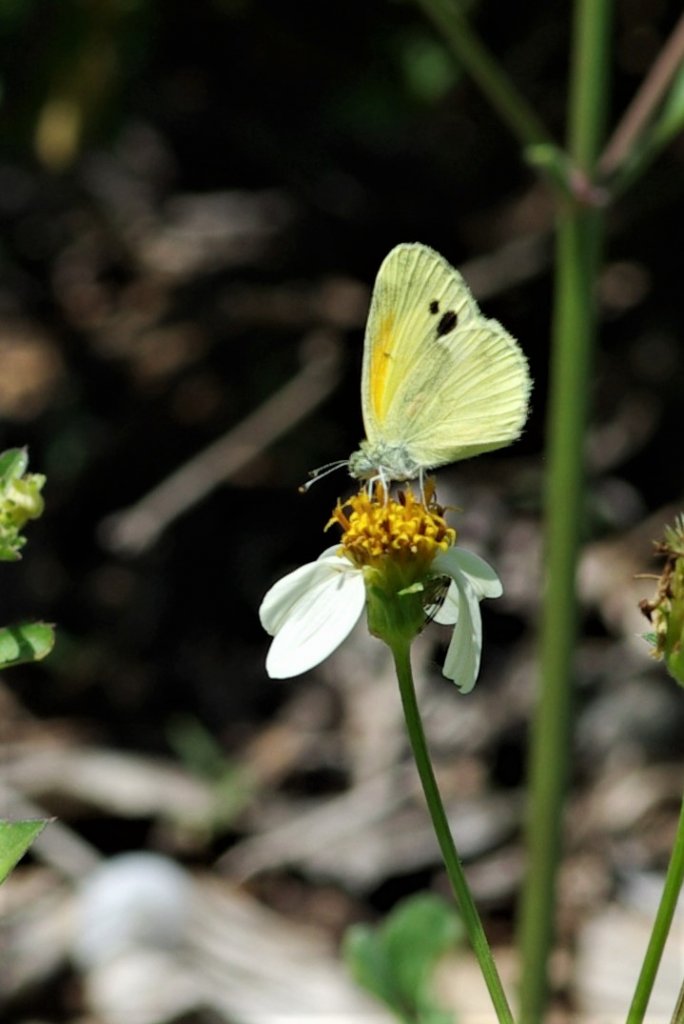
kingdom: Animalia
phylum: Arthropoda
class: Insecta
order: Lepidoptera
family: Pieridae
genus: Nathalis
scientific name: Nathalis iole
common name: Dainty Sulphur
